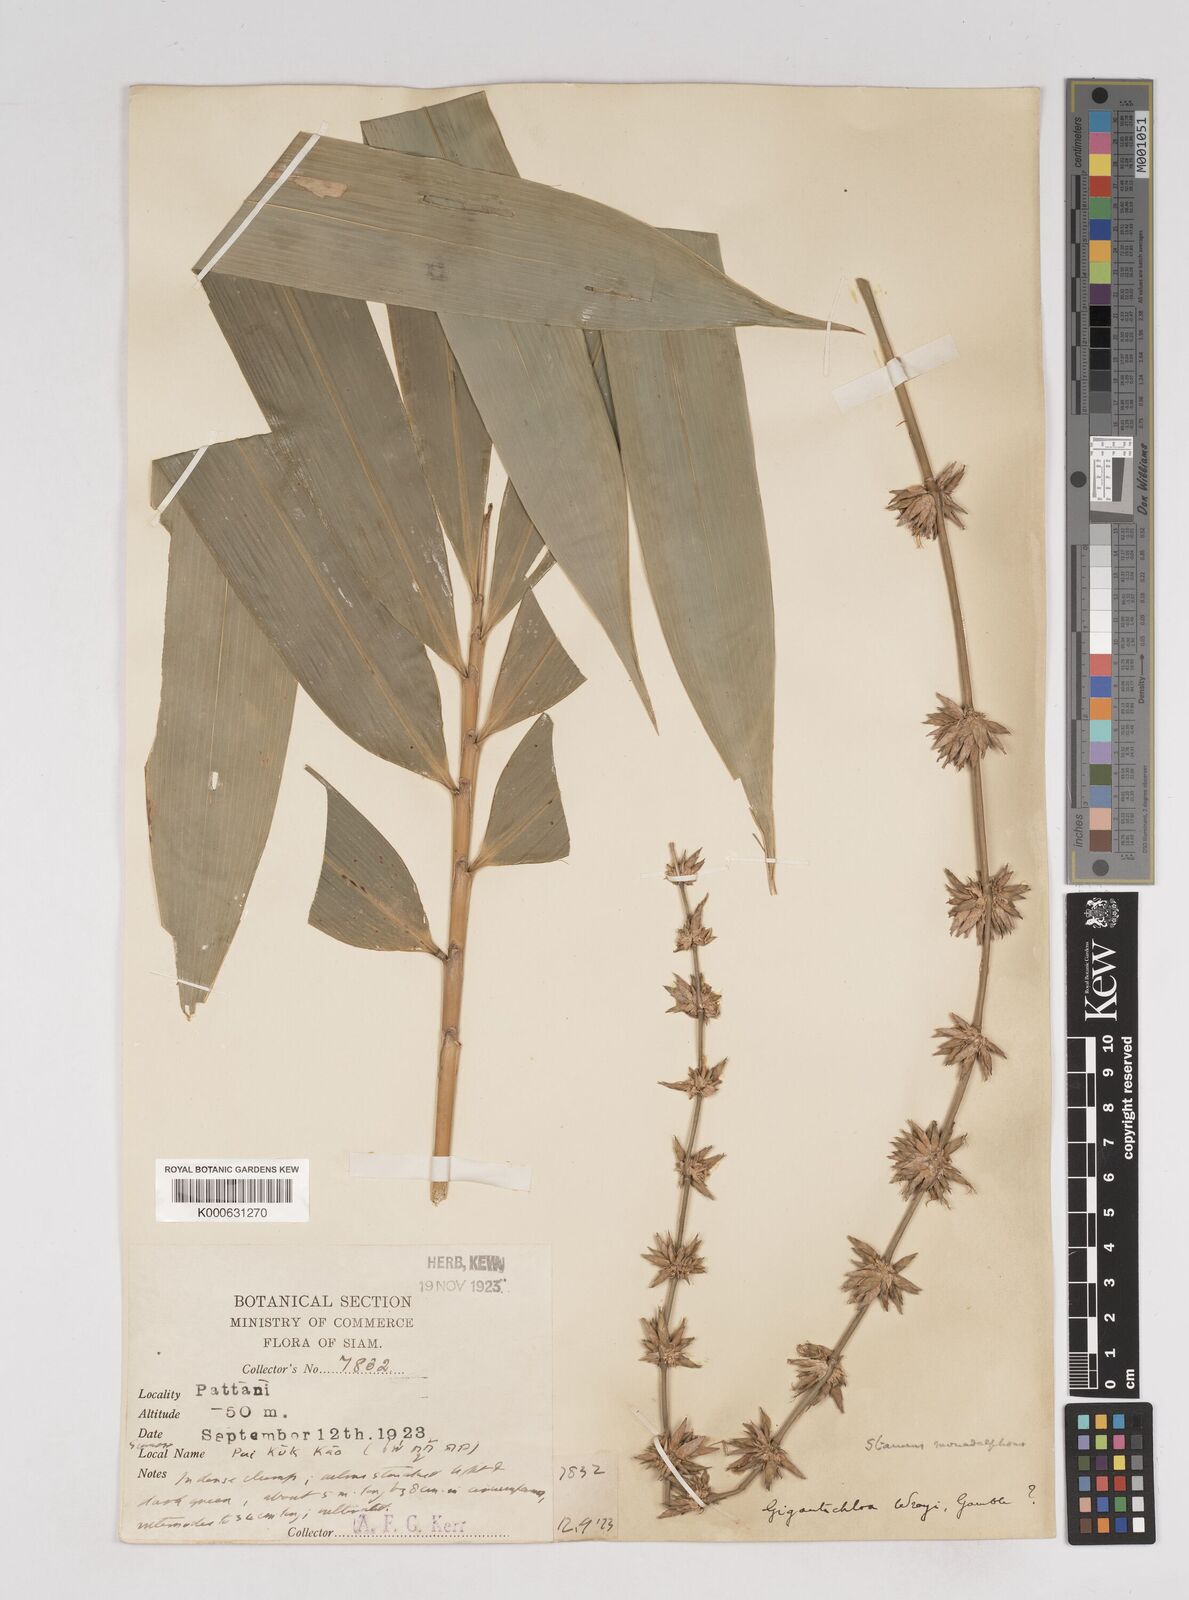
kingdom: Plantae
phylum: Tracheophyta
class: Liliopsida
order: Poales
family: Poaceae
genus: Gigantochloa
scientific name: Gigantochloa
